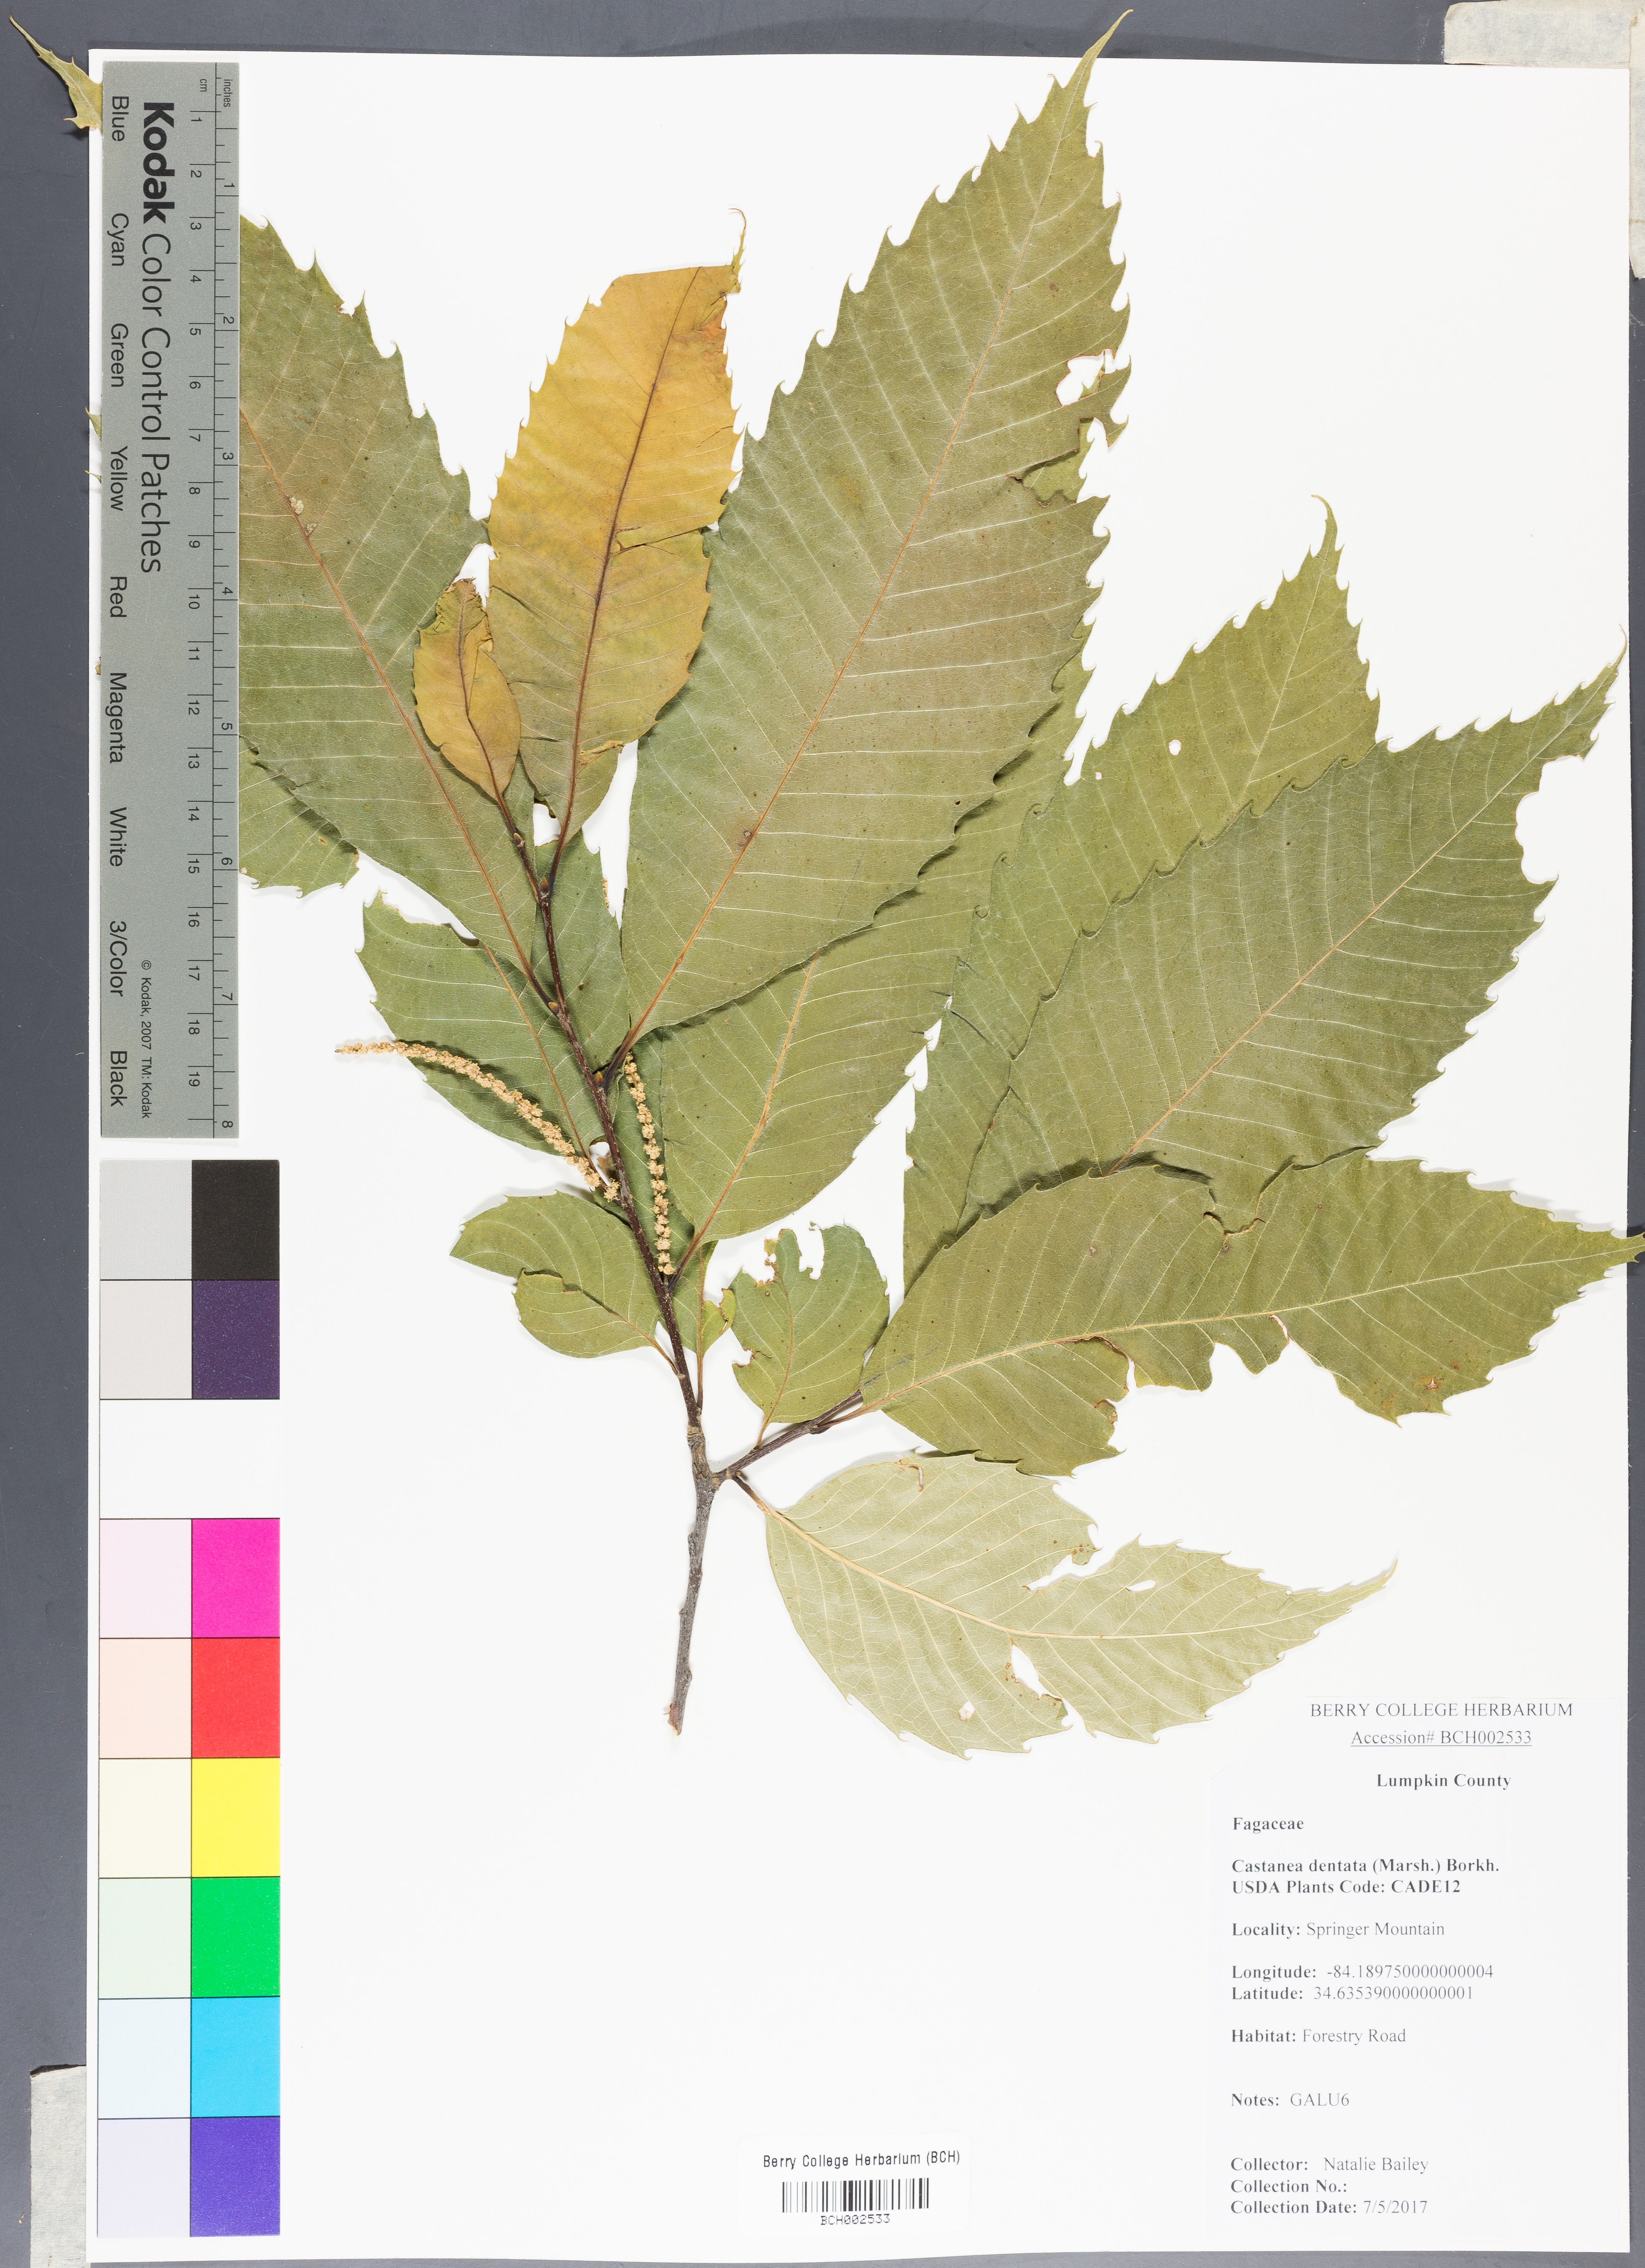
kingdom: Plantae
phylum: Tracheophyta
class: Magnoliopsida
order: Fagales
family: Fagaceae
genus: Castanea
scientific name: Castanea dentata
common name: American chestnut
